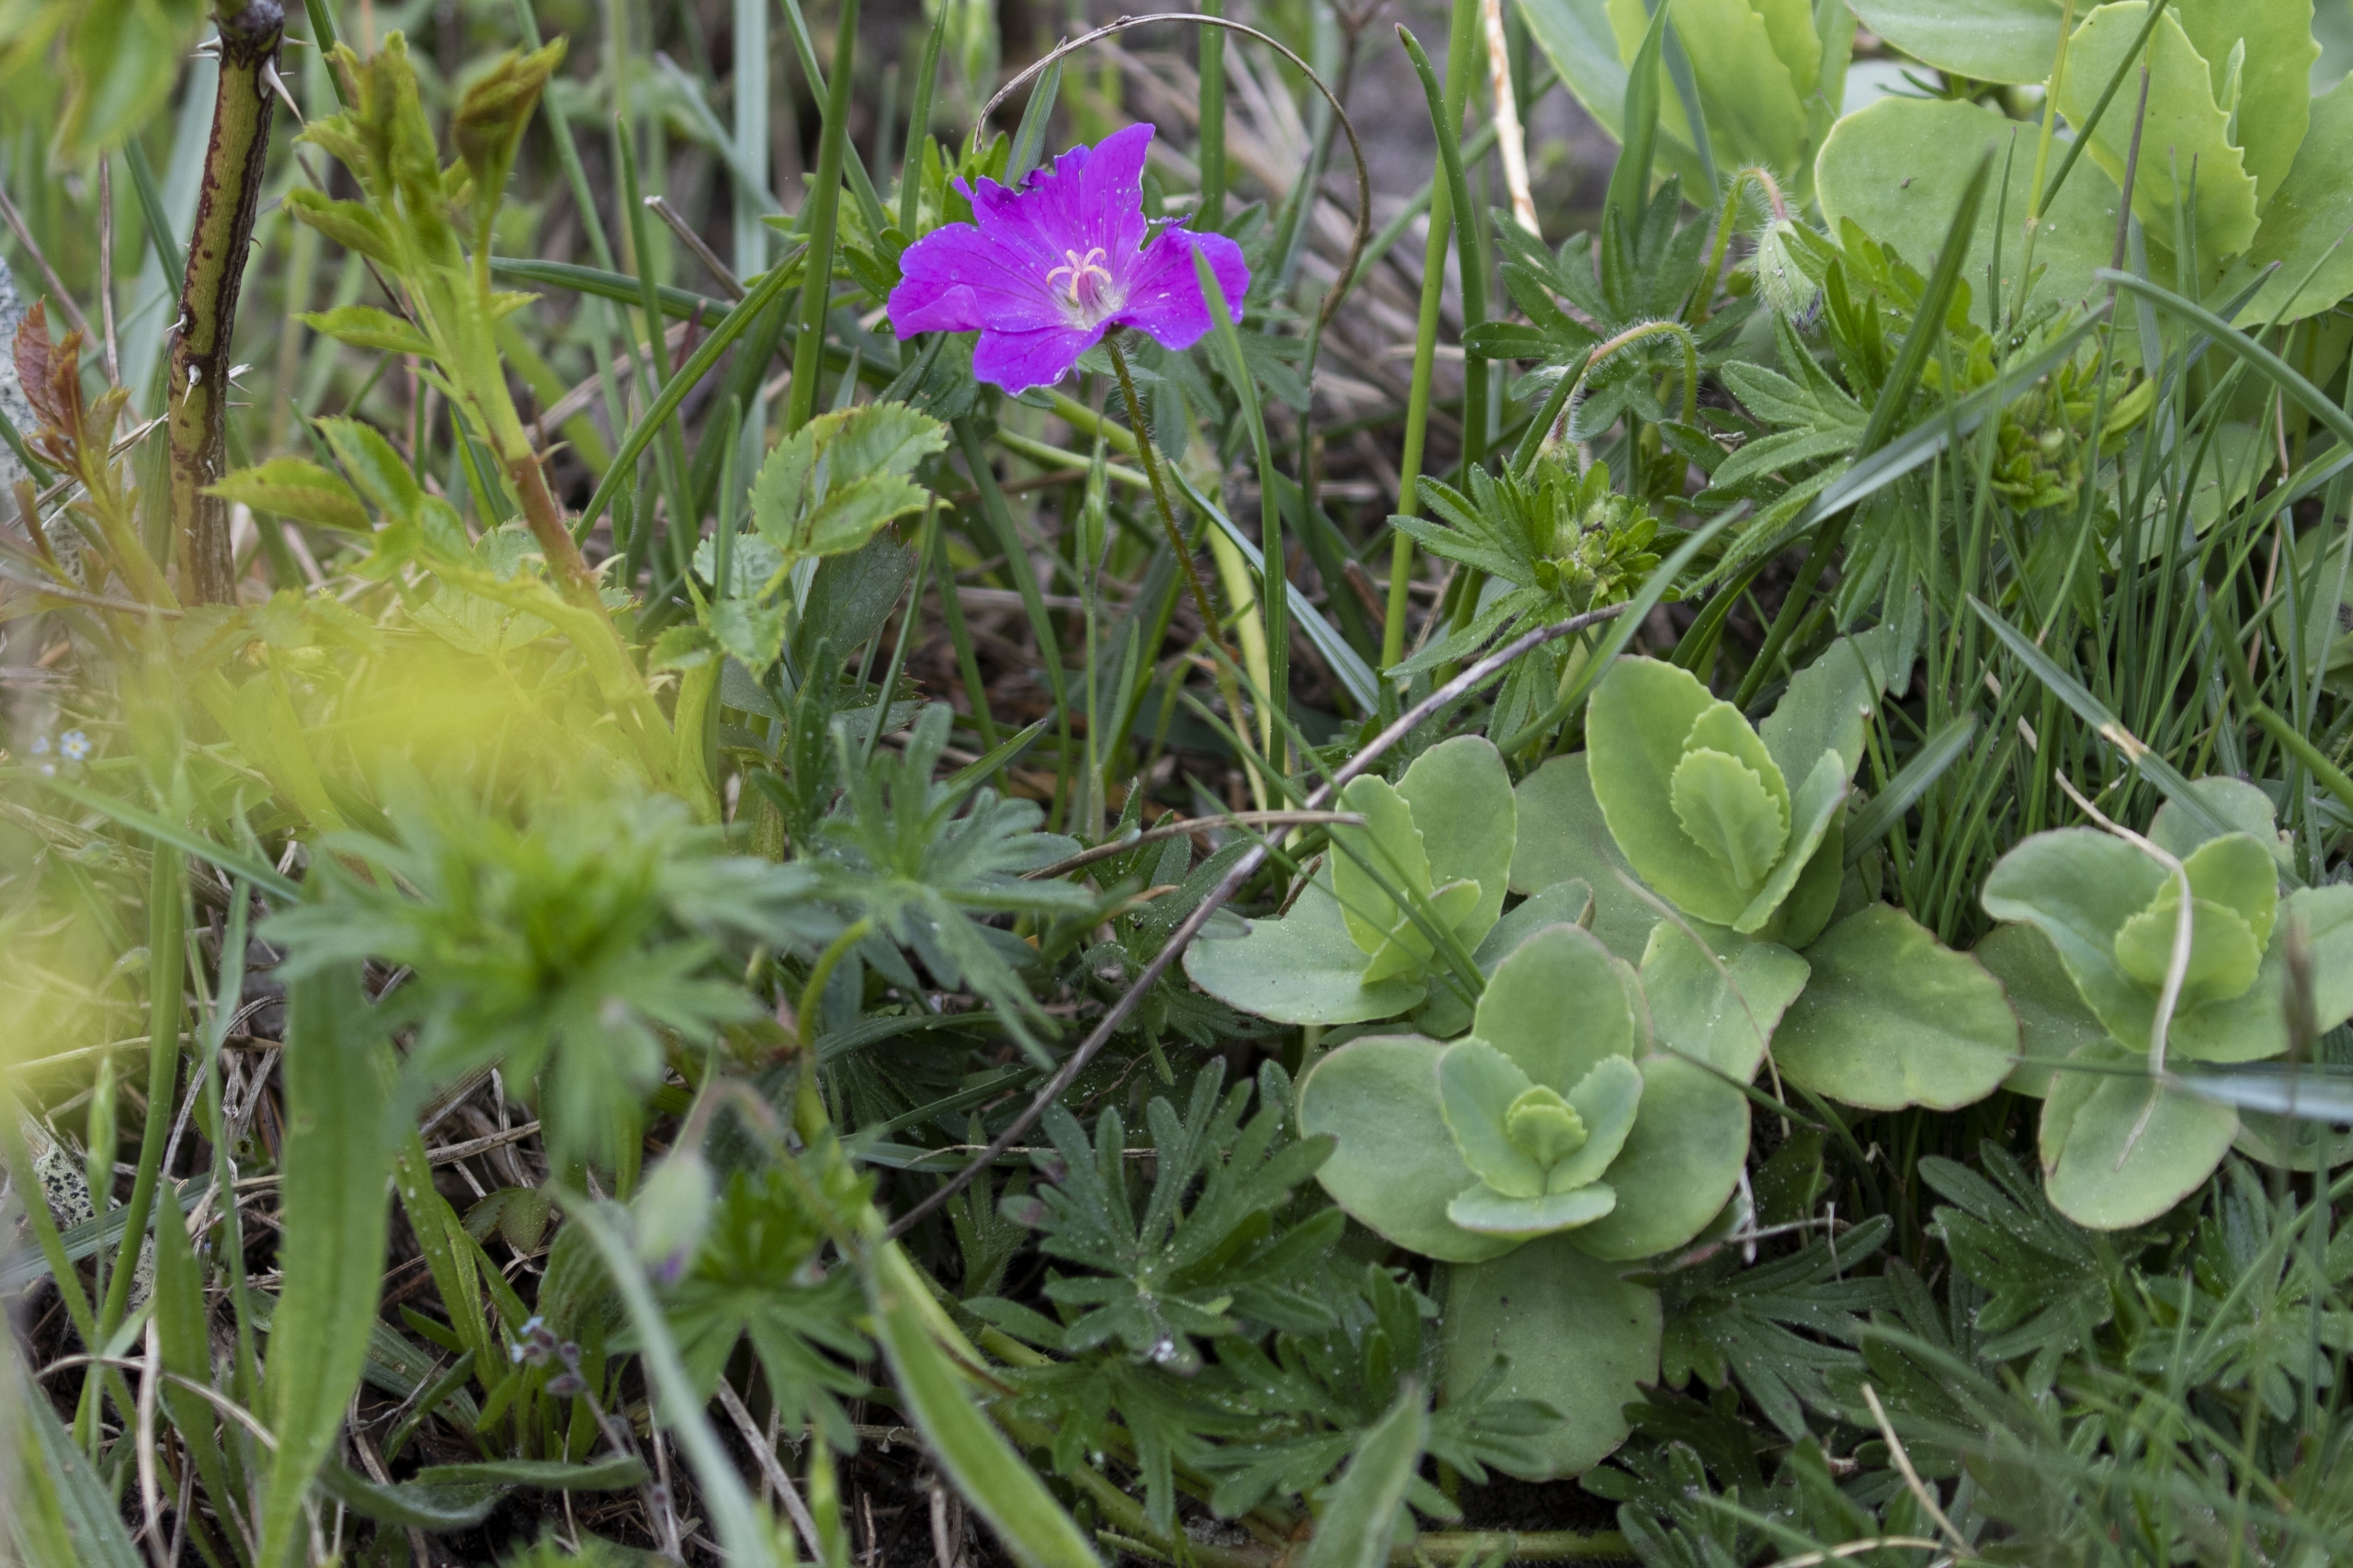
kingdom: Plantae
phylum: Tracheophyta
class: Magnoliopsida
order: Geraniales
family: Geraniaceae
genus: Geranium
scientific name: Geranium sanguineum
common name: Blodrød storkenæb
